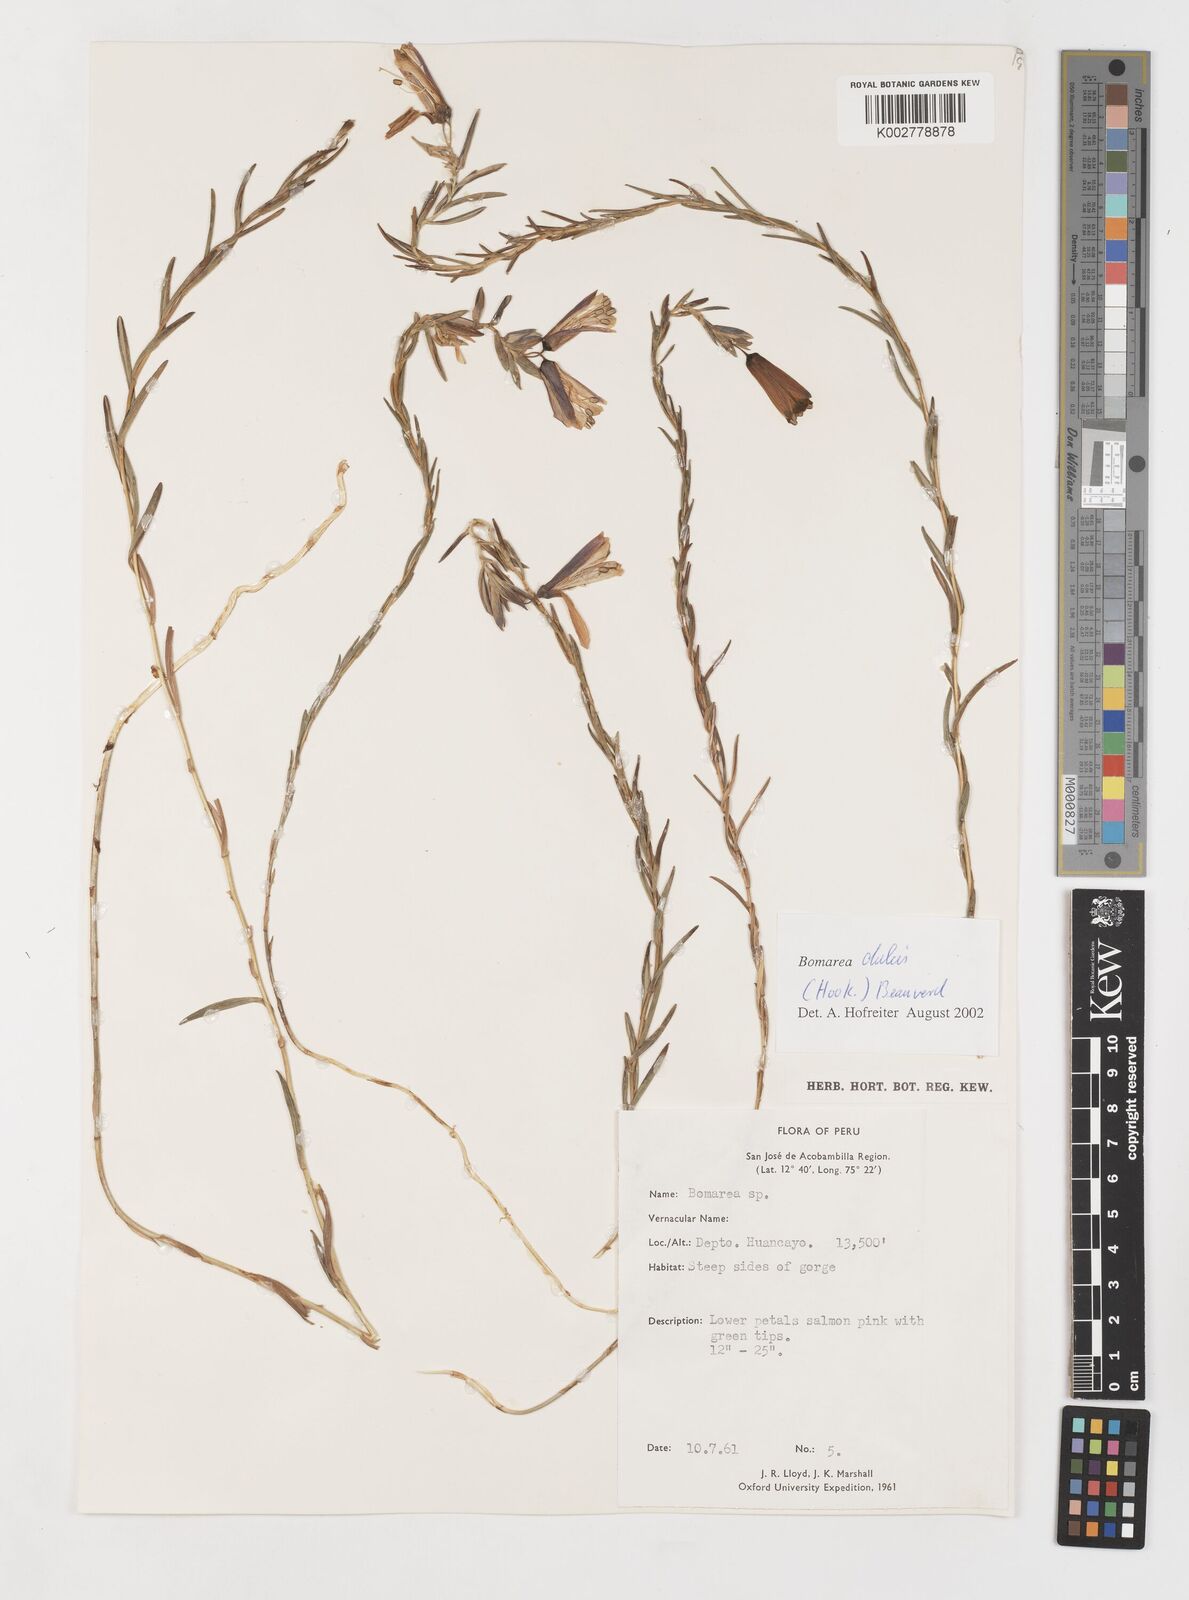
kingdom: Plantae
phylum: Tracheophyta
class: Liliopsida
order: Liliales
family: Alstroemeriaceae
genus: Bomarea
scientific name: Bomarea dulcis
